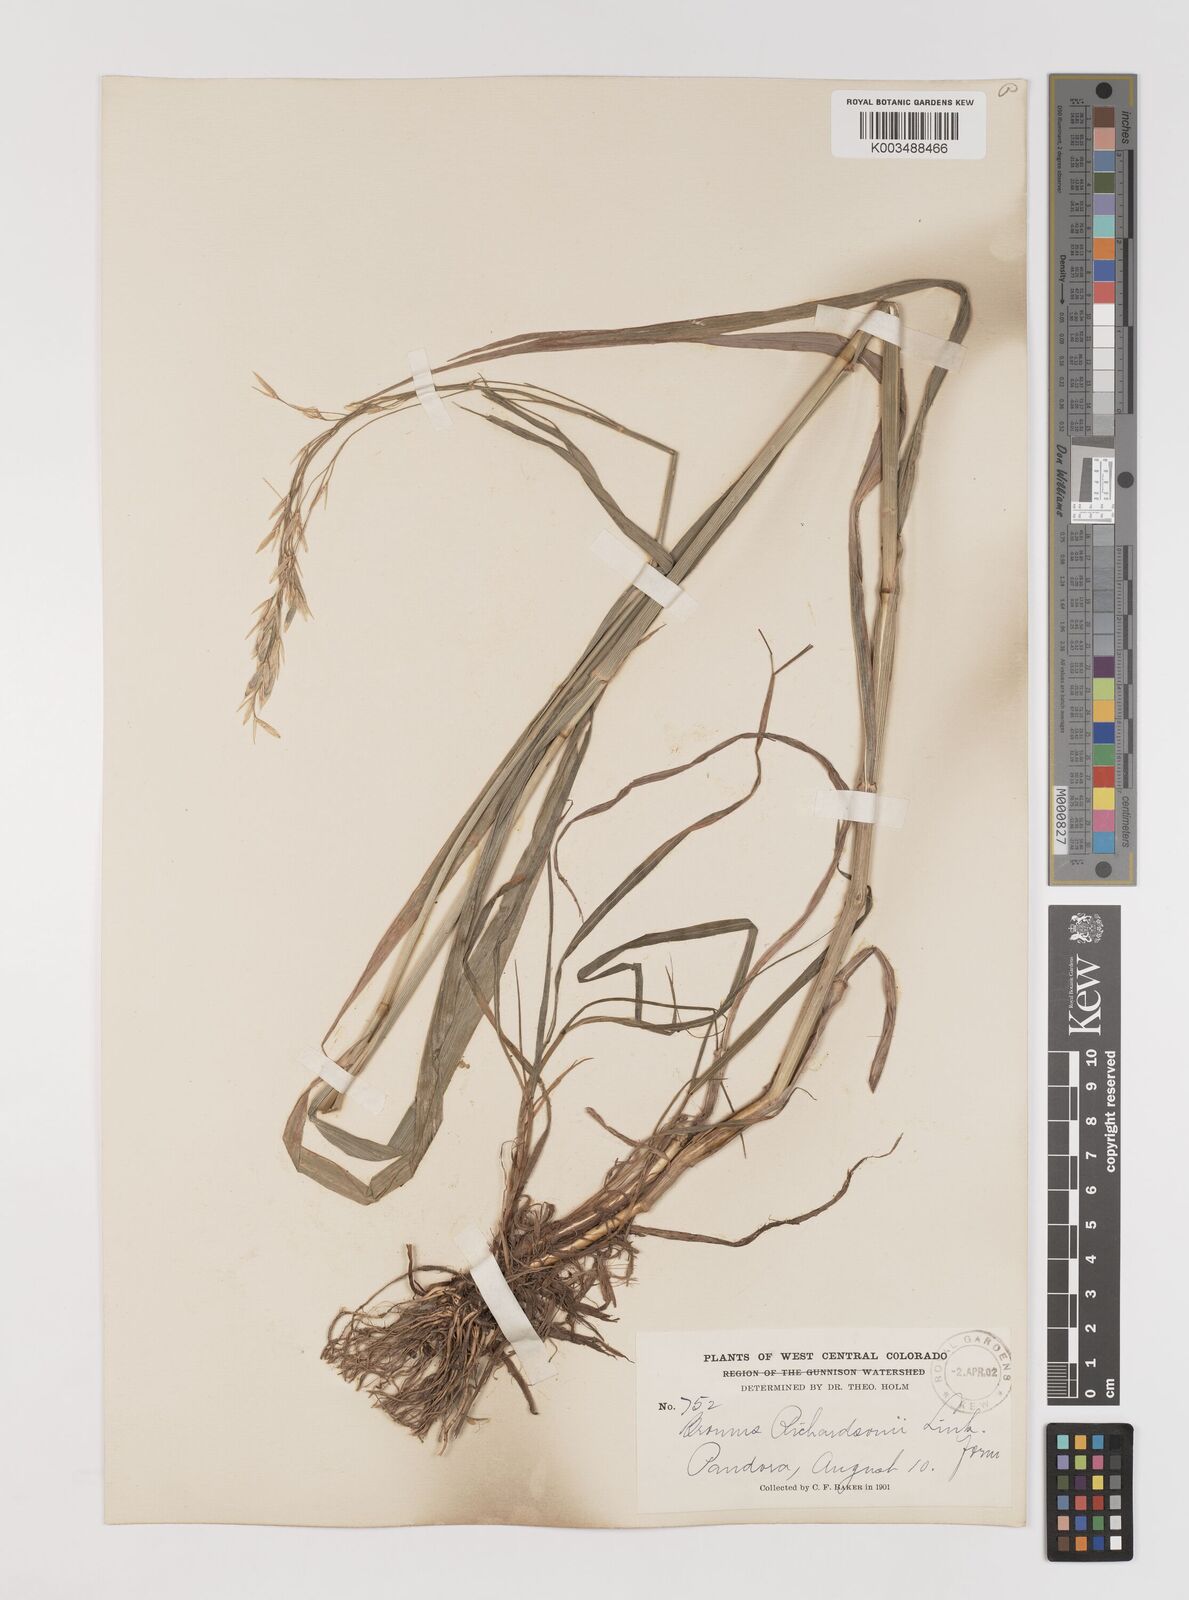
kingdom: Plantae
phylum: Tracheophyta
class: Liliopsida
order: Poales
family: Poaceae
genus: Bromus
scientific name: Bromus richardsonii
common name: Richardson's brome
